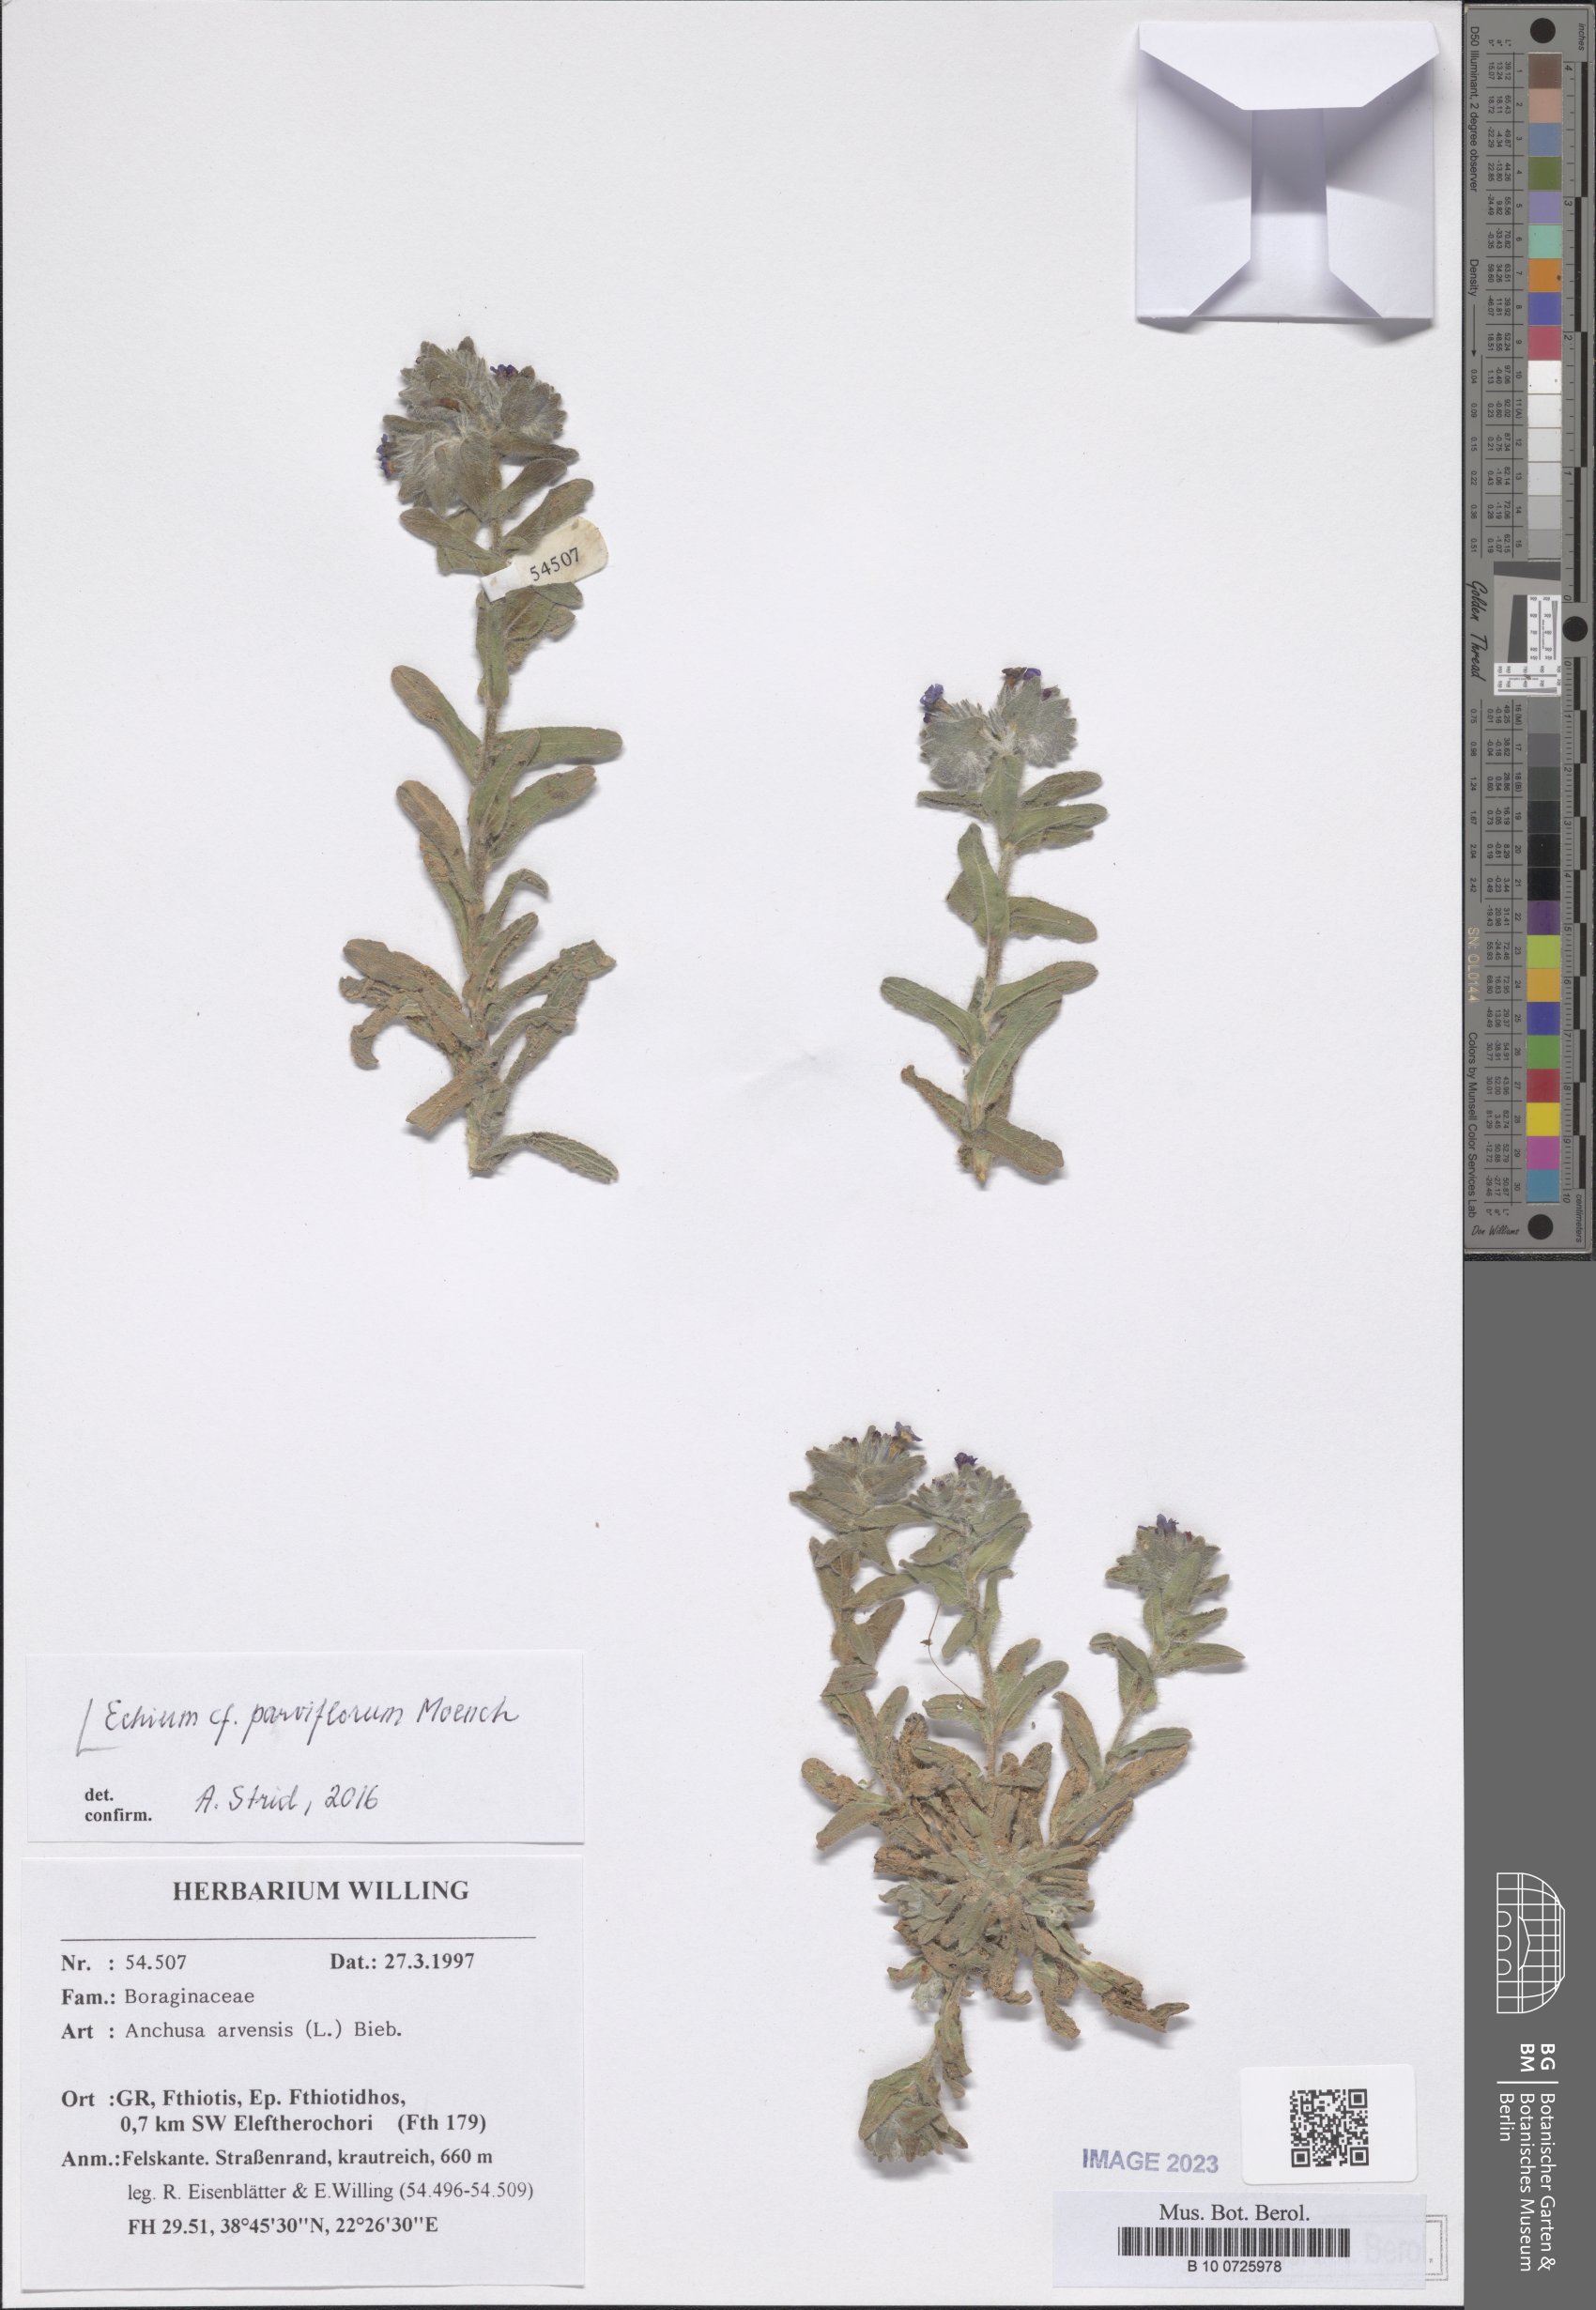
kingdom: Plantae
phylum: Tracheophyta
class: Magnoliopsida
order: Boraginales
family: Boraginaceae
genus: Echium
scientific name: Echium parviflorum
